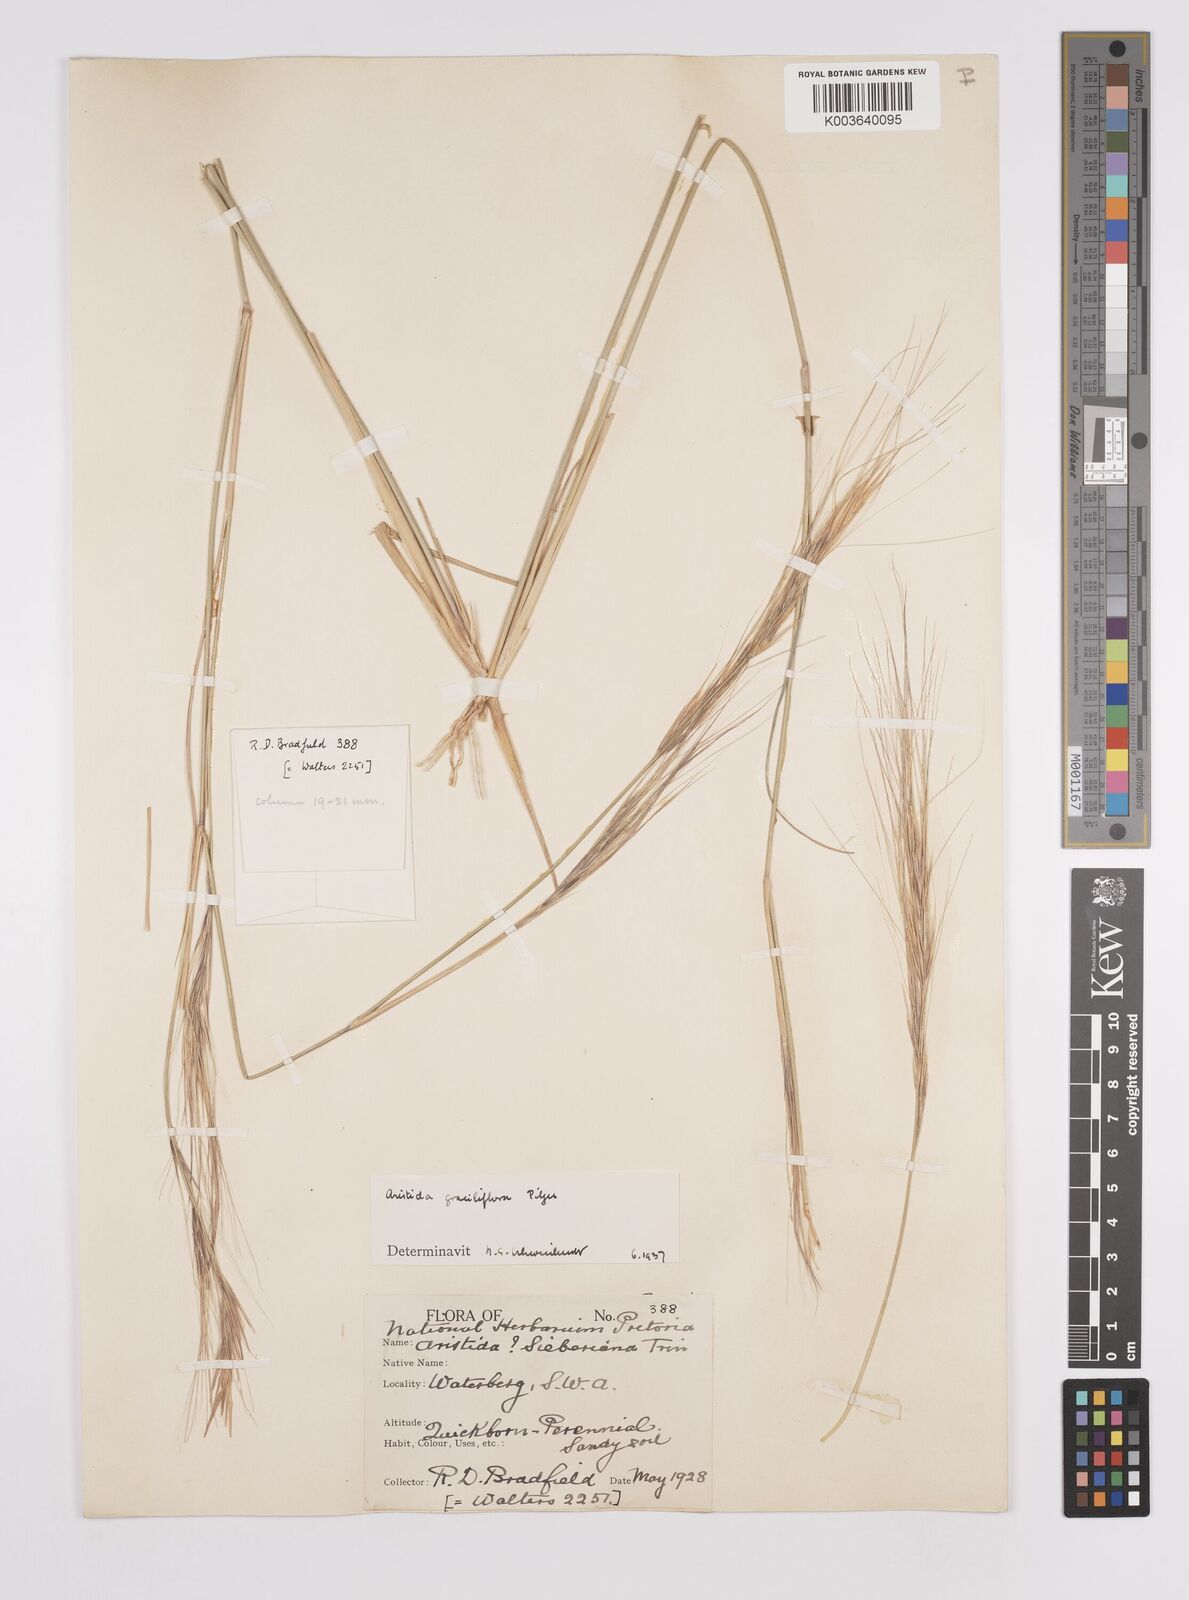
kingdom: Plantae
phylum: Tracheophyta
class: Liliopsida
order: Poales
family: Poaceae
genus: Aristida
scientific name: Aristida stipitata
